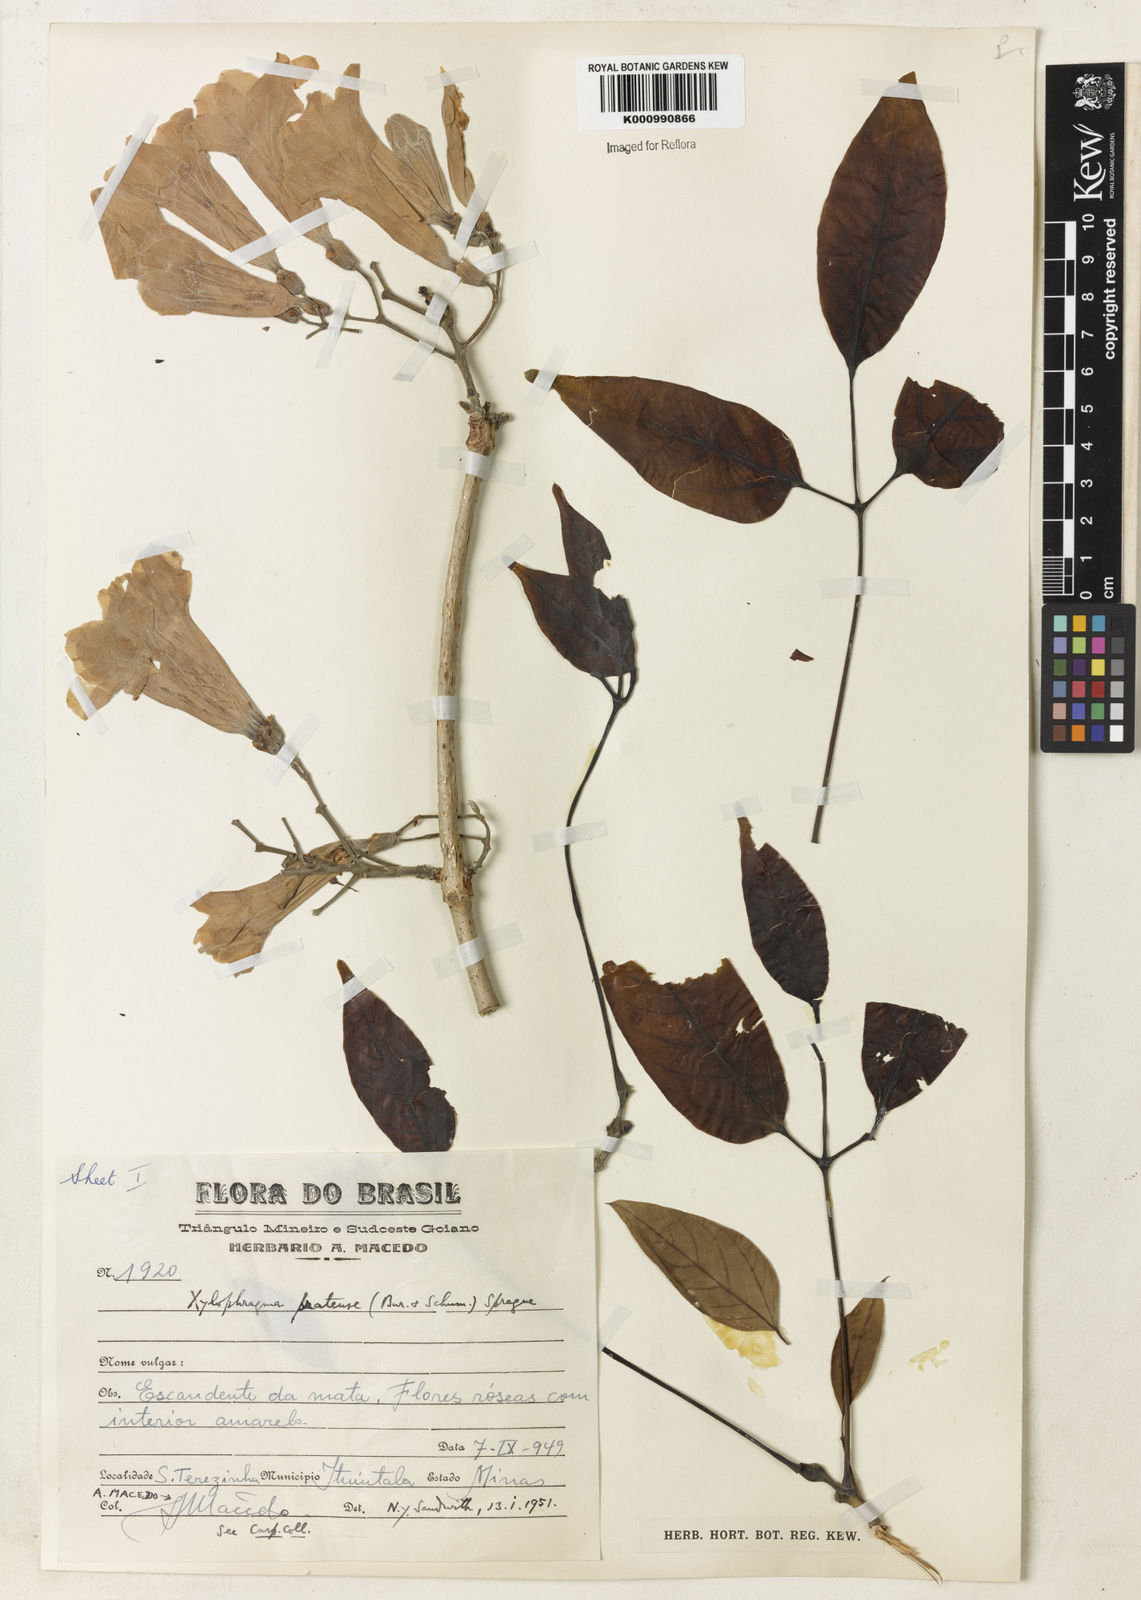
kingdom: Plantae
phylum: Tracheophyta
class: Magnoliopsida
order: Lamiales
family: Bignoniaceae
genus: Xylophragma
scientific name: Xylophragma pratense
